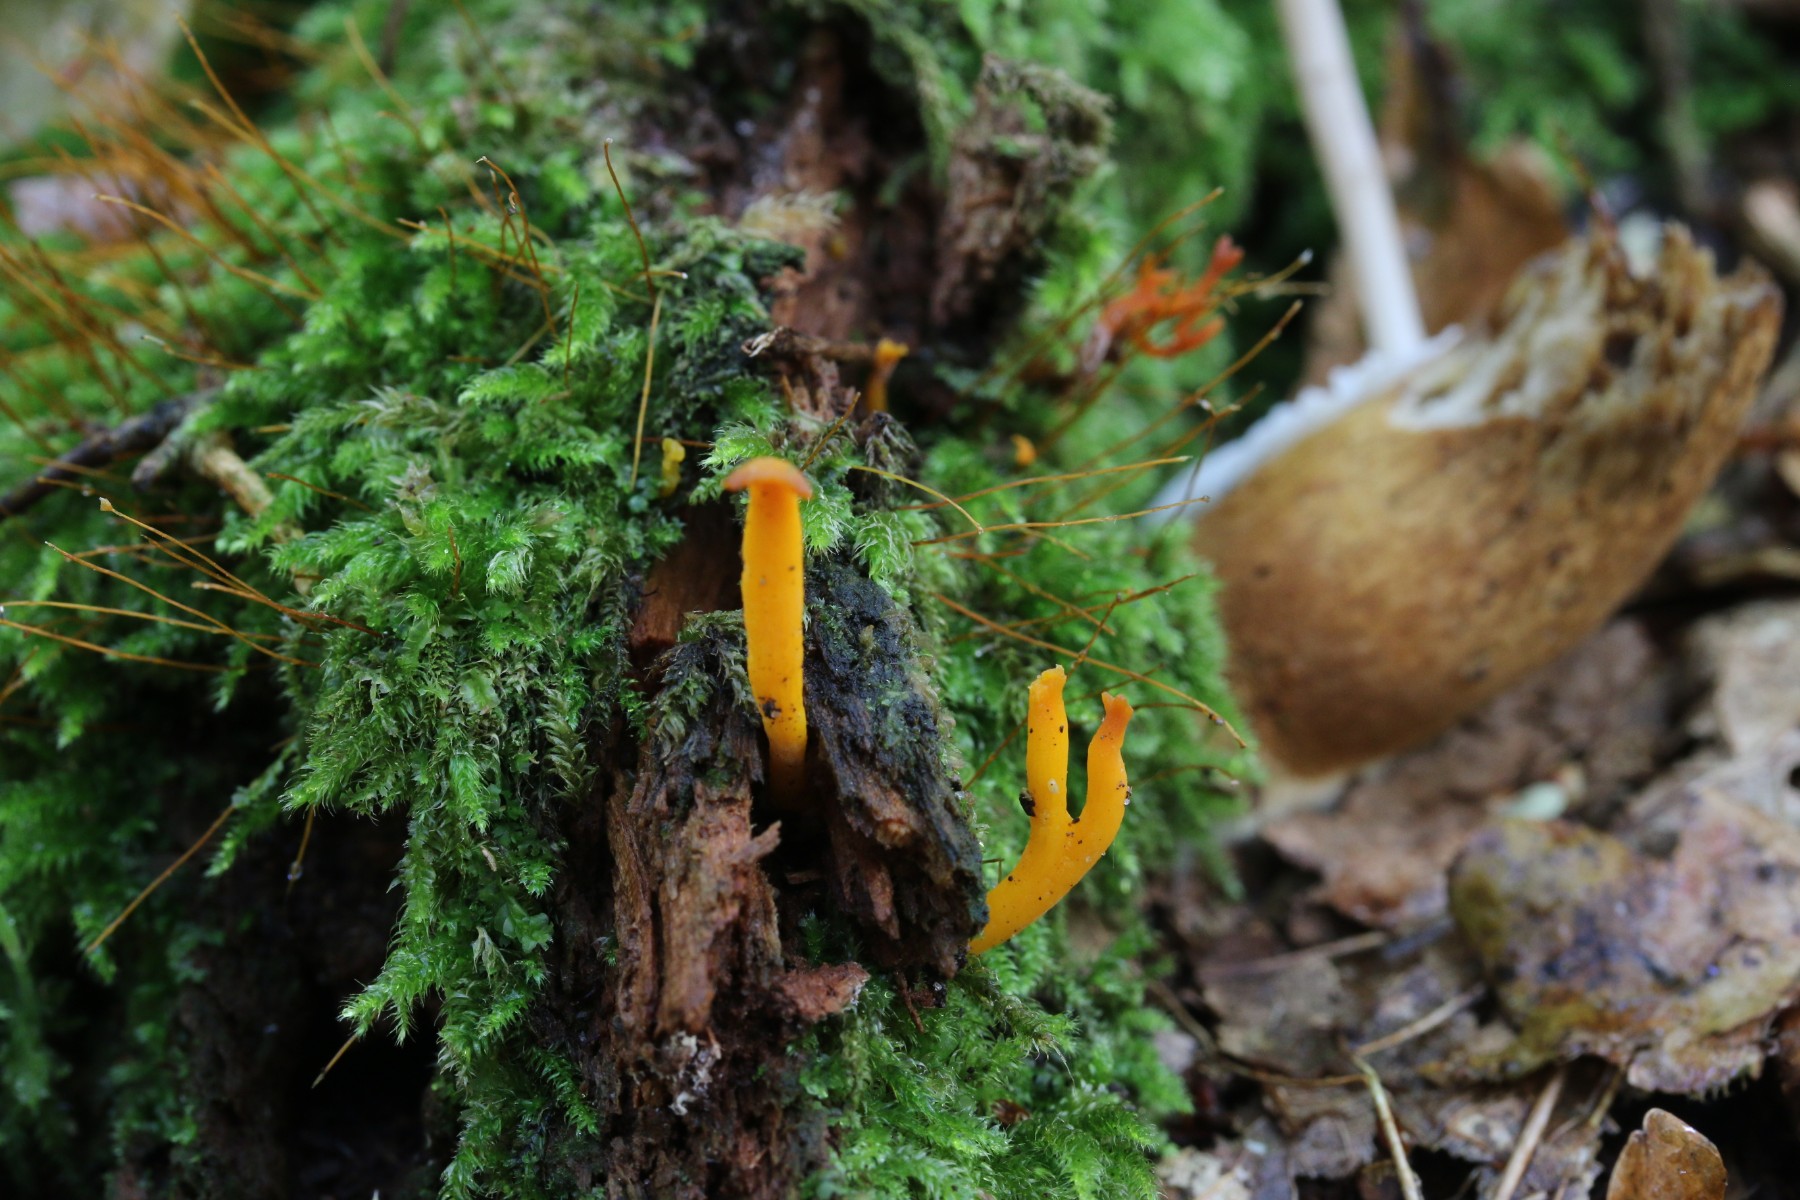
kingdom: Fungi
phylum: Basidiomycota
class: Dacrymycetes
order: Dacrymycetales
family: Dacrymycetaceae
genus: Calocera
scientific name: Calocera viscosa
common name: almindelig guldgaffel
